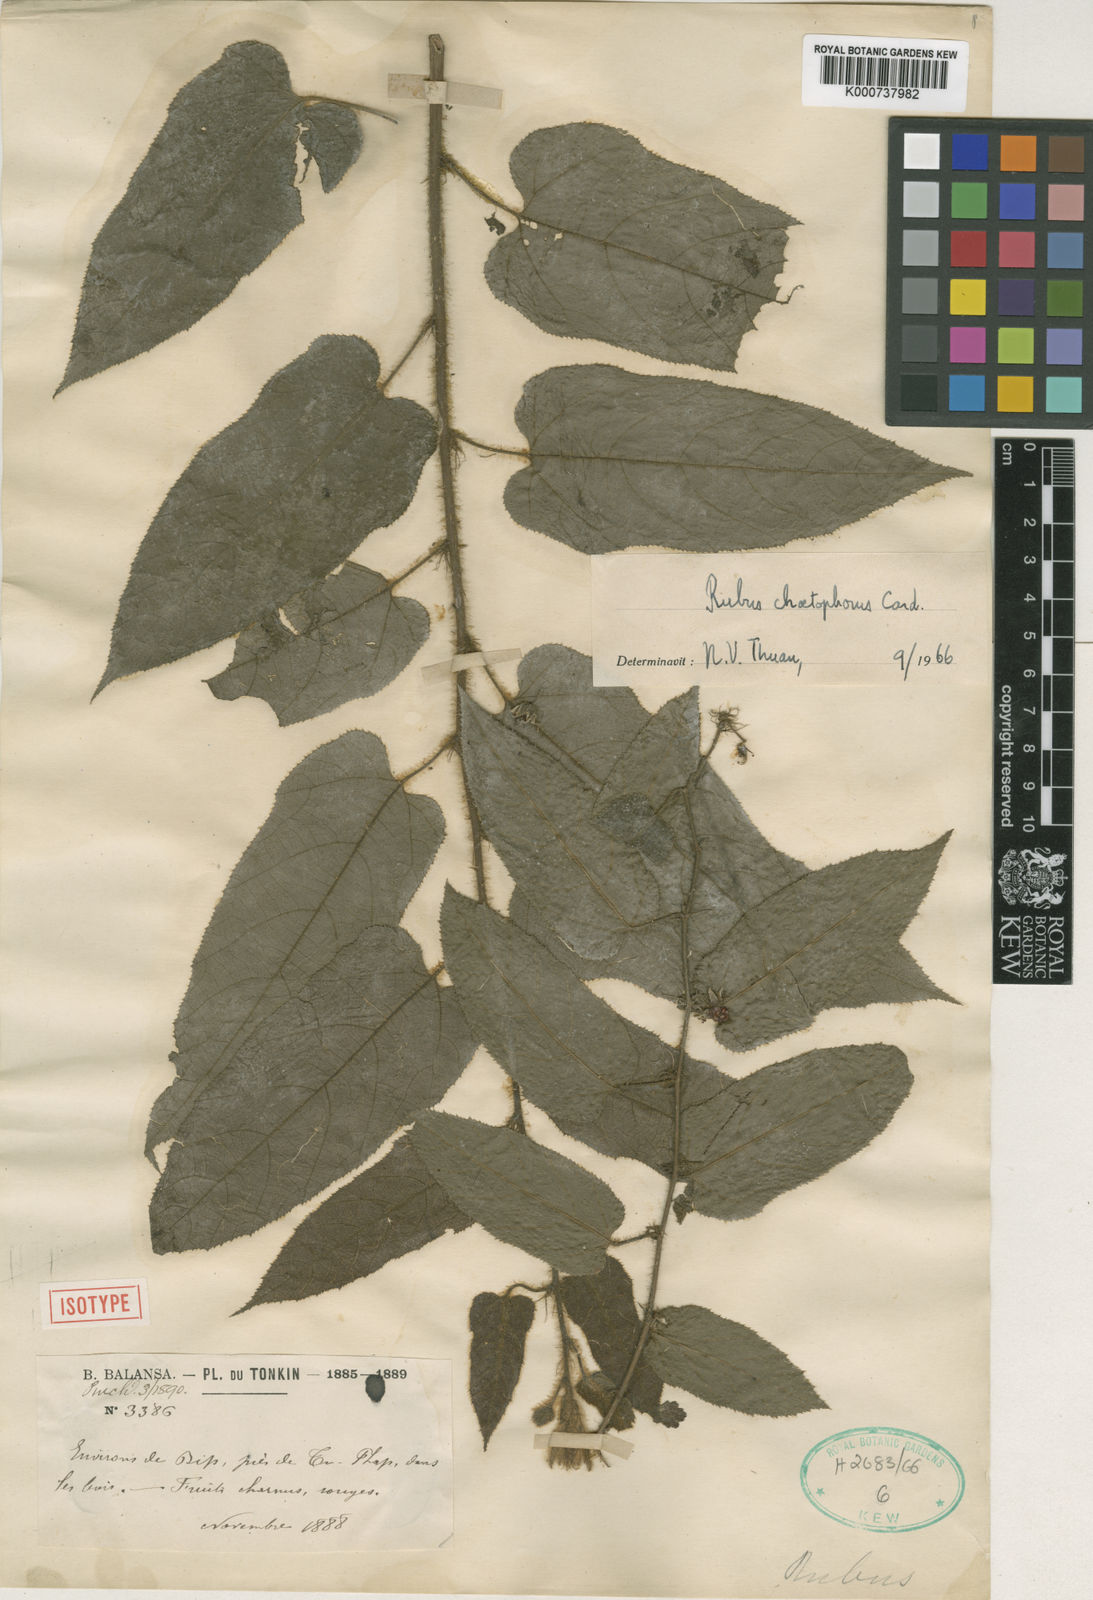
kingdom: Plantae
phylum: Tracheophyta
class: Magnoliopsida
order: Rosales
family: Rosaceae
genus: Rubus
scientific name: Rubus chaetophorus
